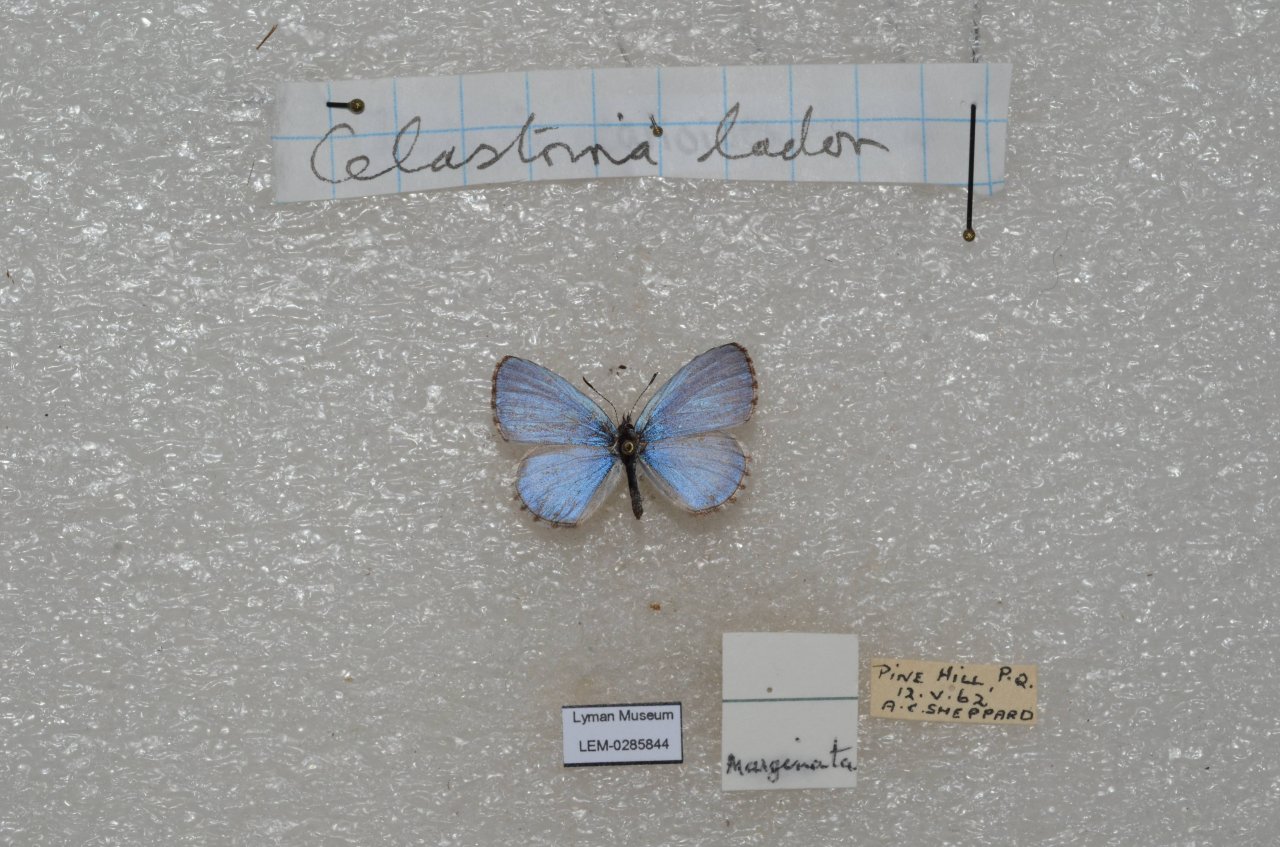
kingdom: Animalia
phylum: Arthropoda
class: Insecta
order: Lepidoptera
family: Lycaenidae
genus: Celastrina
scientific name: Celastrina lucia
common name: Northern Spring Azure
